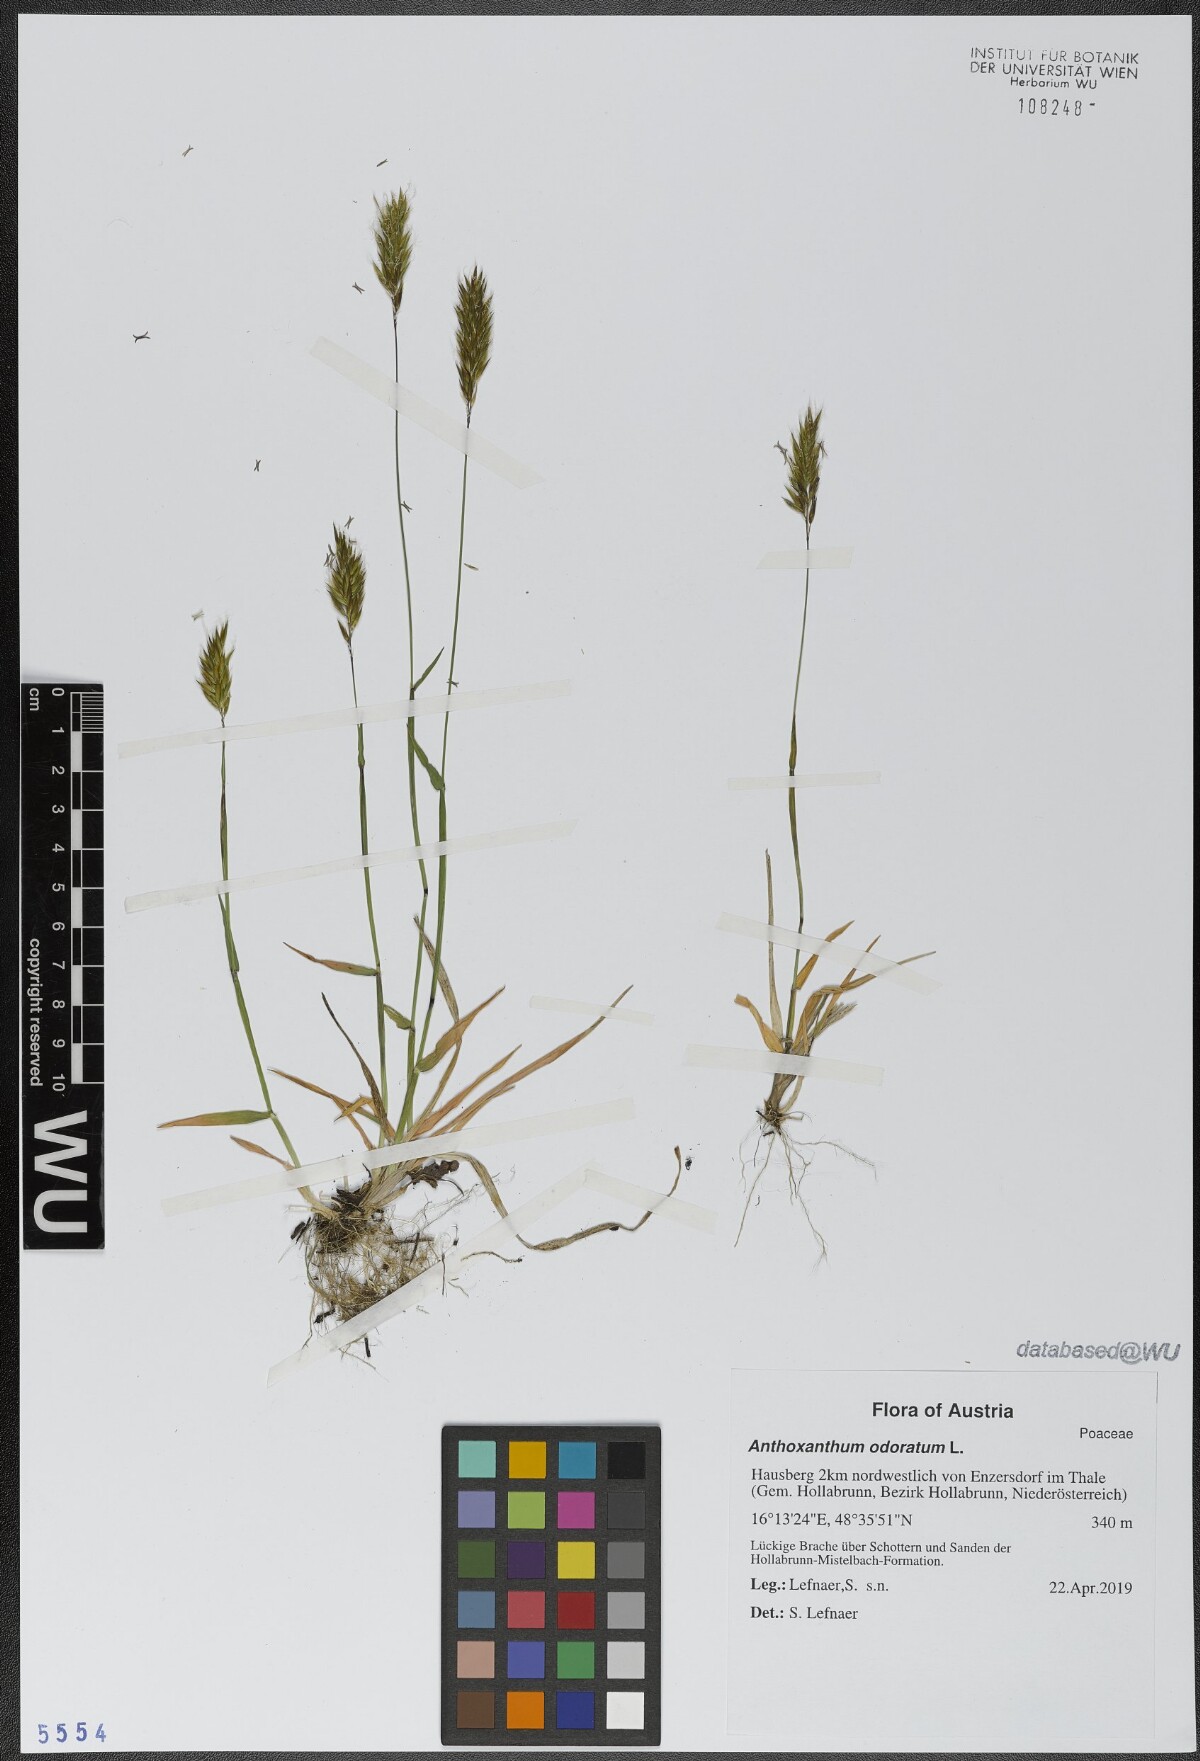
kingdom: Plantae
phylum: Tracheophyta
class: Liliopsida
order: Poales
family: Poaceae
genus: Anthoxanthum
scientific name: Anthoxanthum odoratum
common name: Sweet vernalgrass
